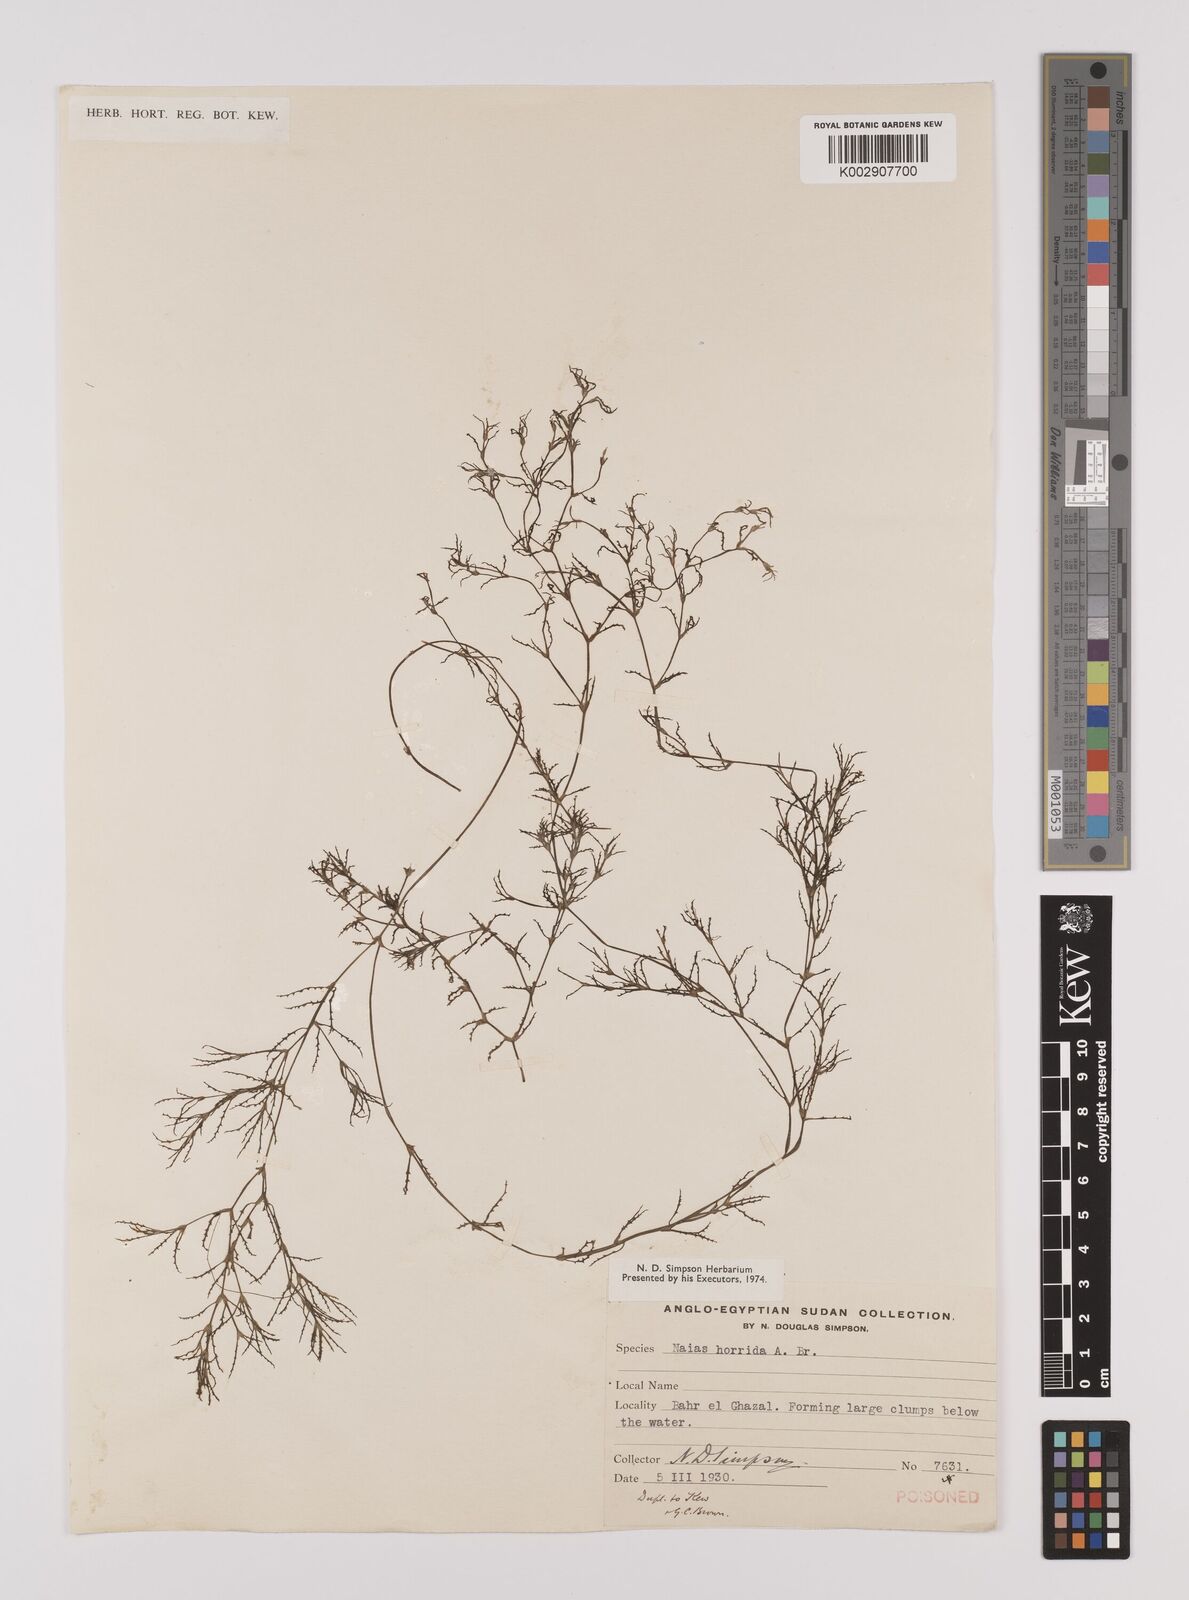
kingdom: Plantae
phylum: Tracheophyta
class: Liliopsida
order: Alismatales
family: Hydrocharitaceae
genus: Najas
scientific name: Najas horrida
